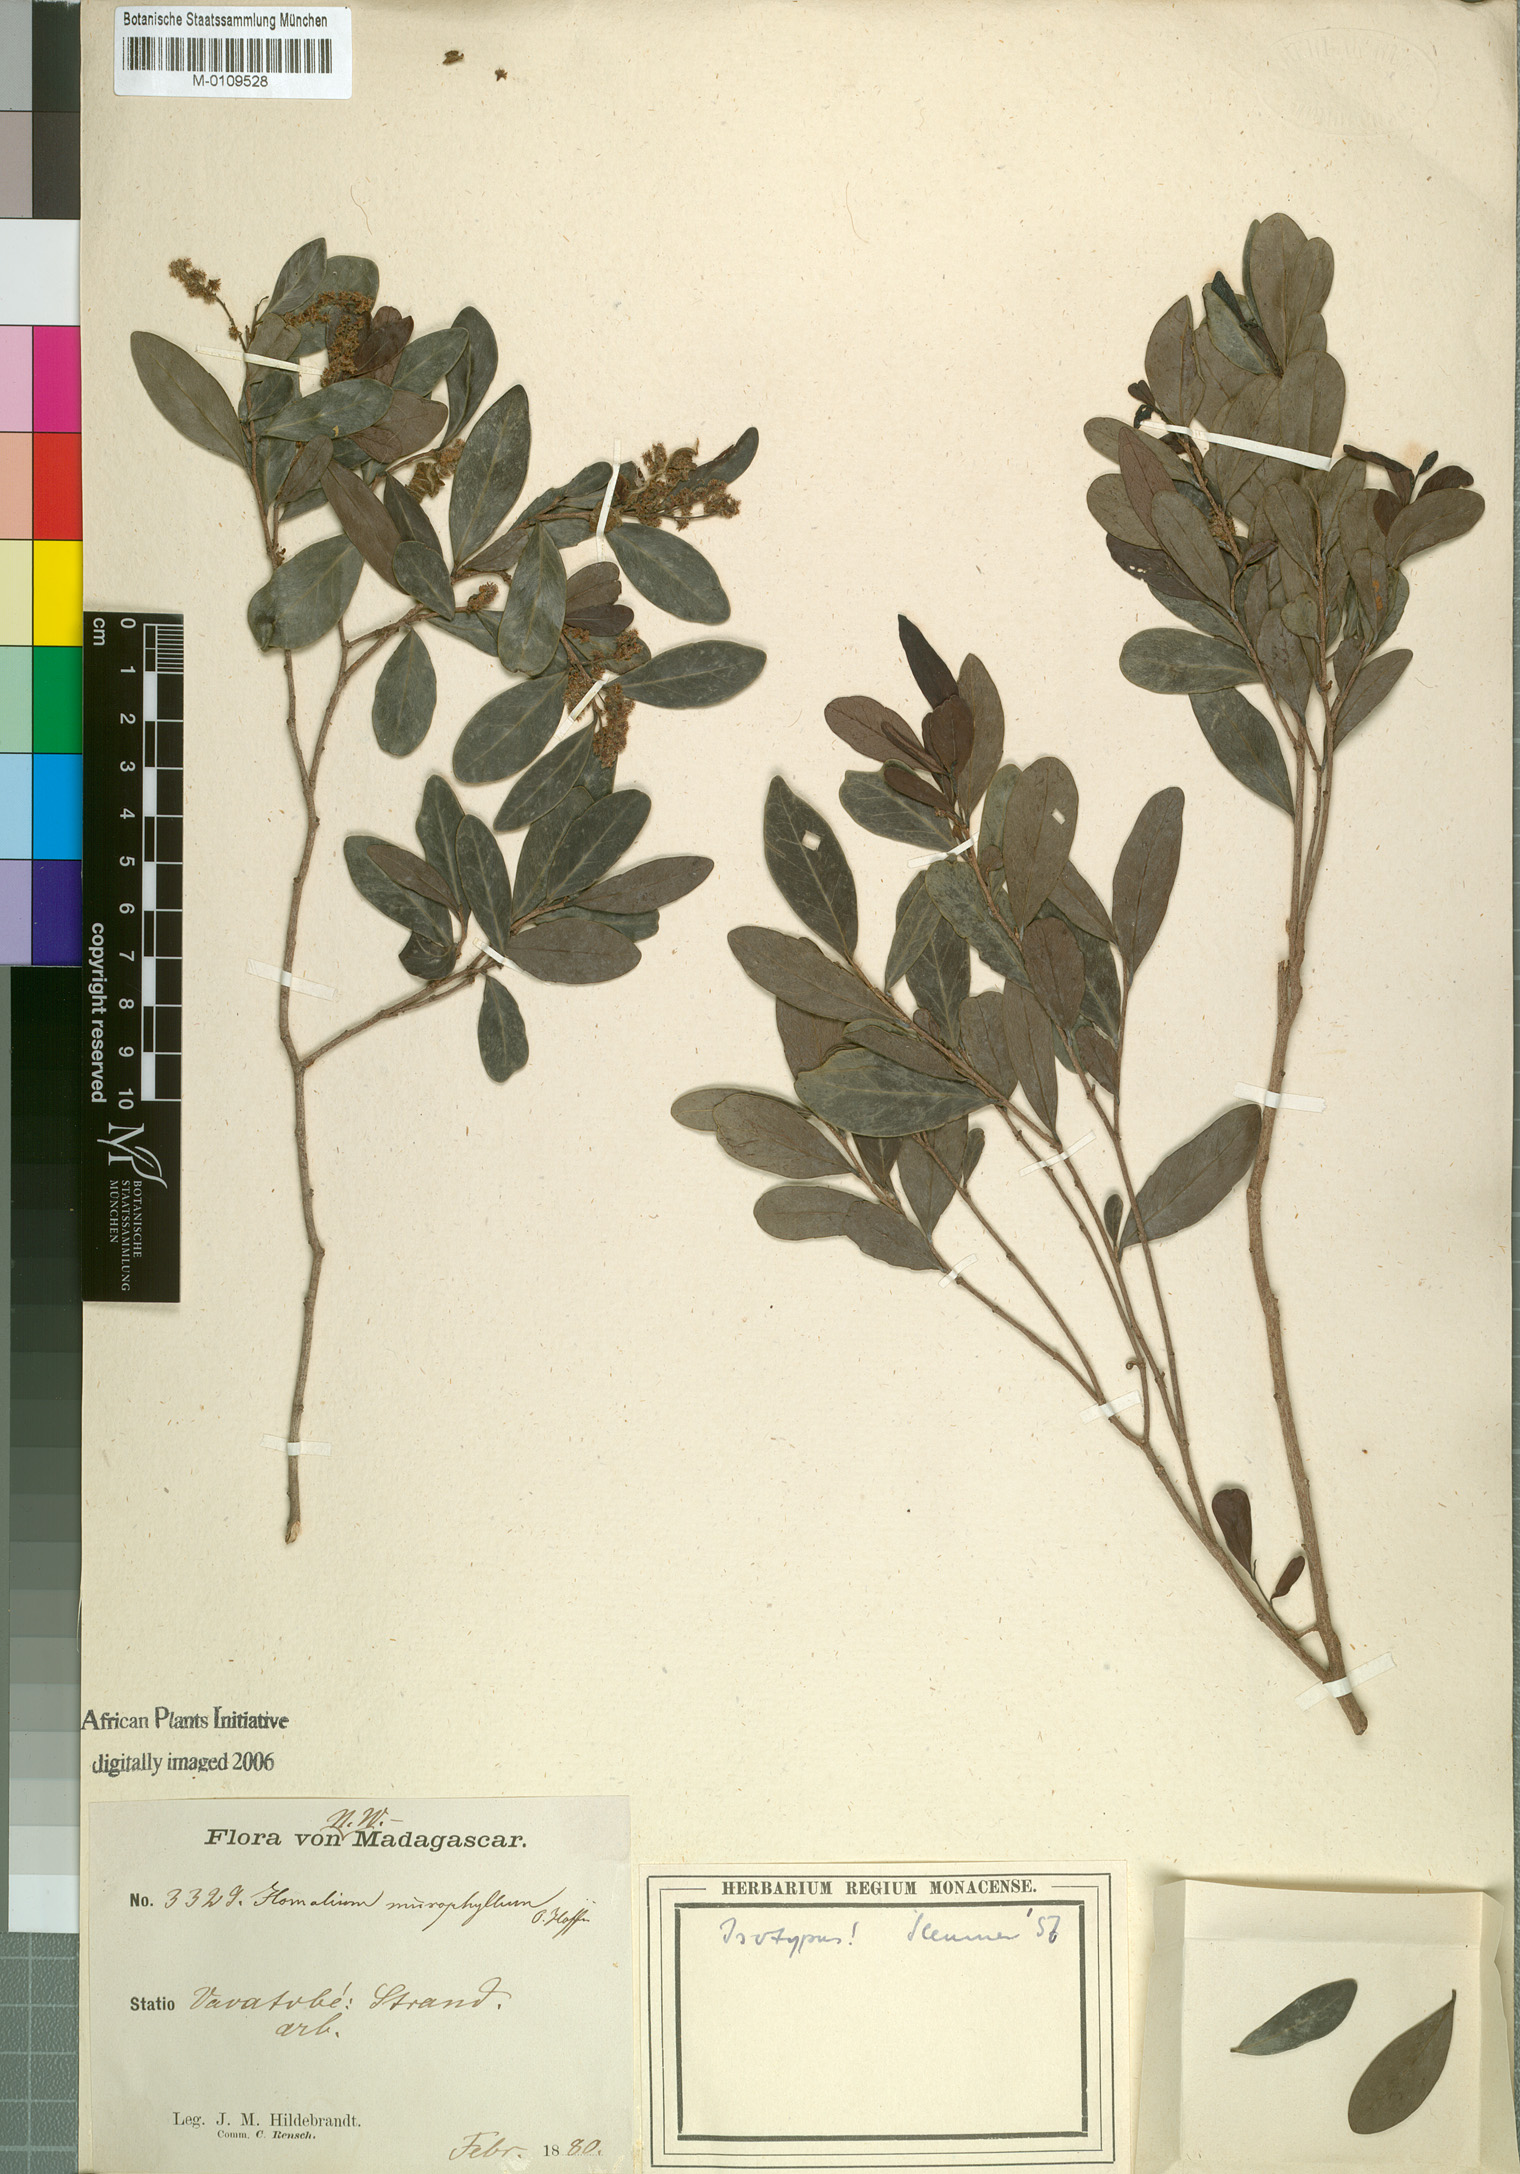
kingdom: Plantae
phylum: Tracheophyta
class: Magnoliopsida
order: Malpighiales
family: Salicaceae
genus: Homalium
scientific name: Homalium microphyllum
